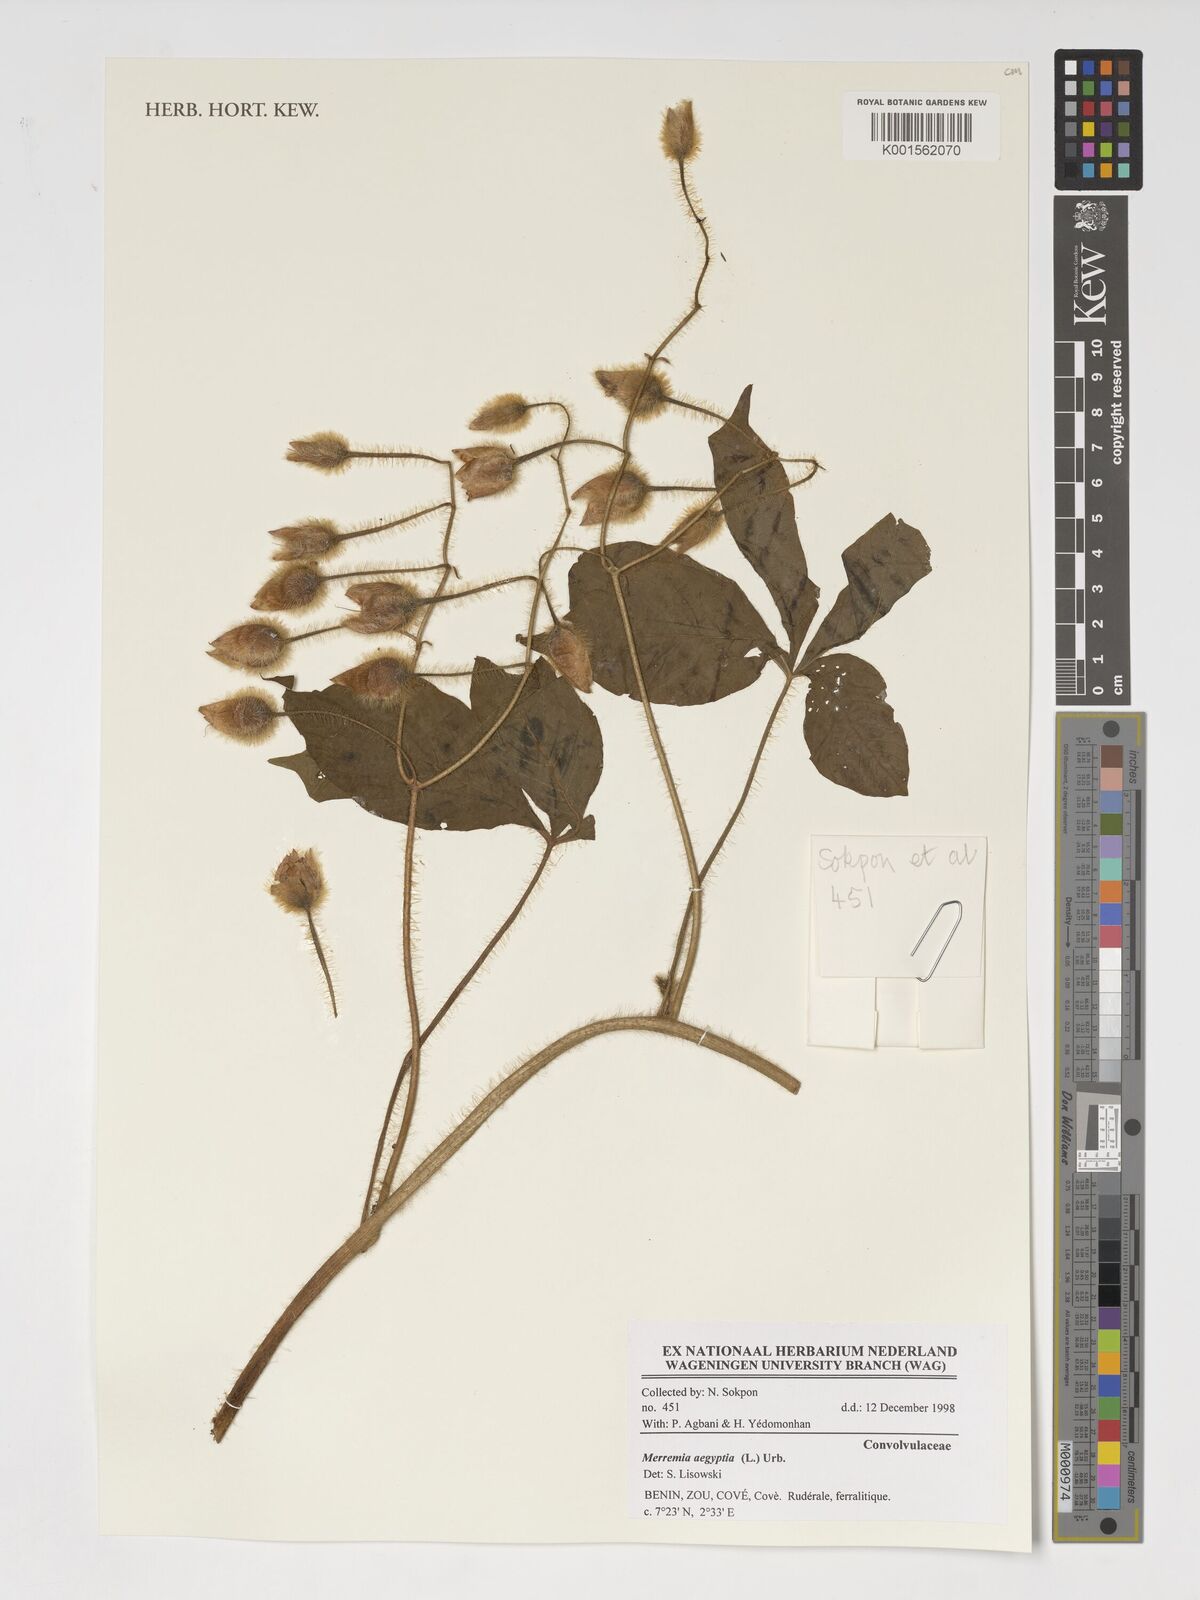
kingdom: Plantae
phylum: Tracheophyta
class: Magnoliopsida
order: Solanales
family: Convolvulaceae
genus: Distimake
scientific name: Distimake aegyptius
